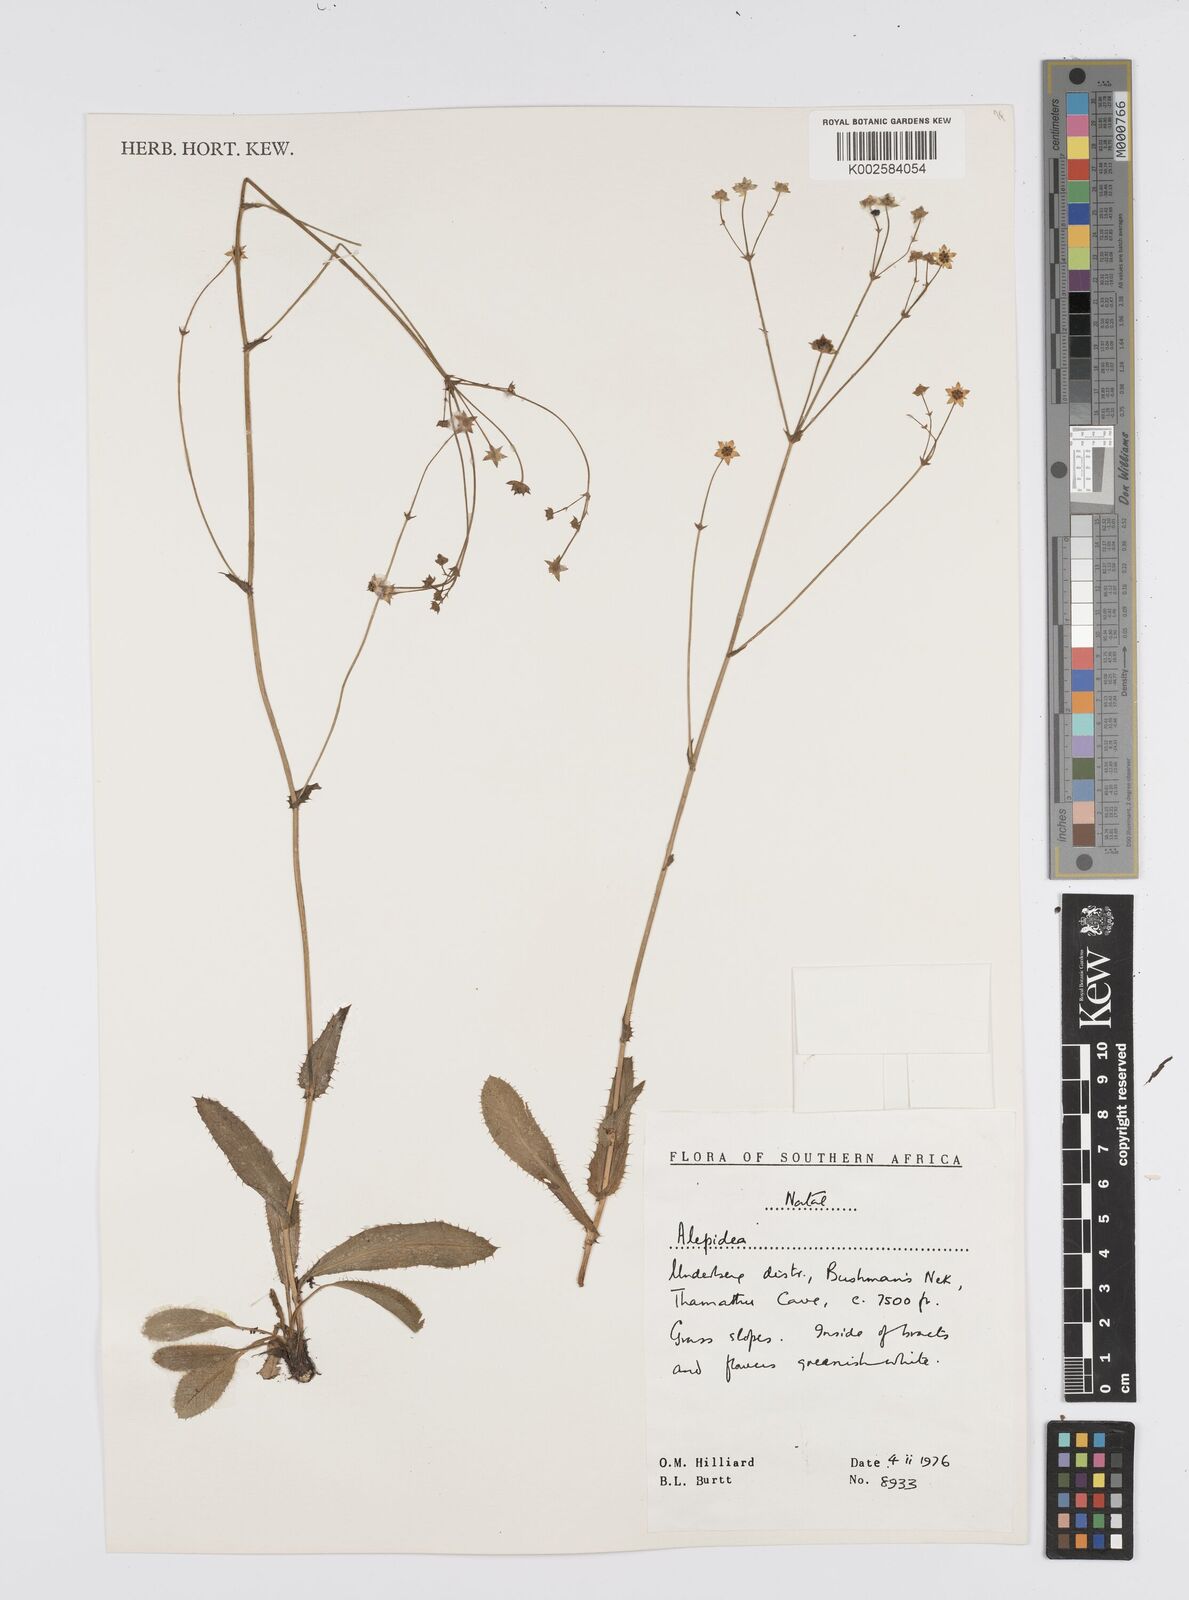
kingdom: Plantae
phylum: Tracheophyta
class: Magnoliopsida
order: Apiales
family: Apiaceae
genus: Alepidea
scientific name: Alepidea woodii
